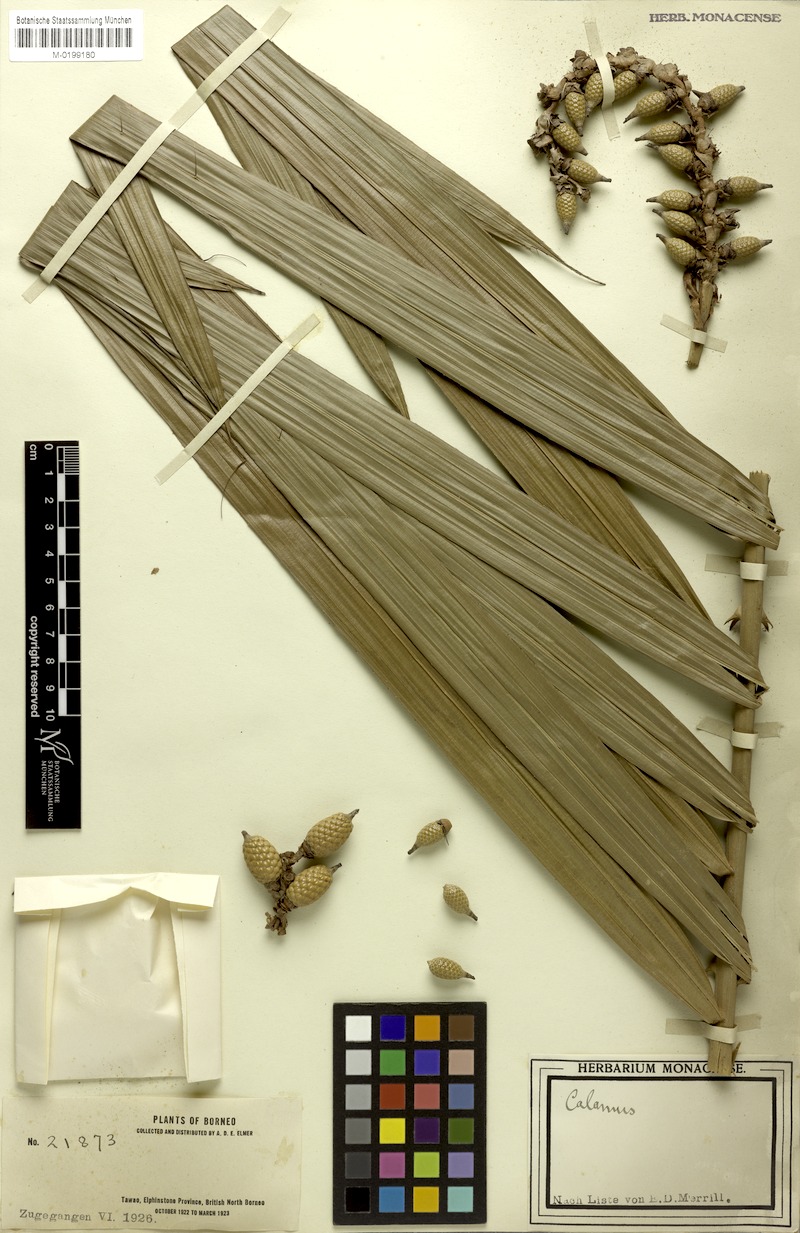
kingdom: Plantae
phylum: Tracheophyta
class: Liliopsida
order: Arecales
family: Arecaceae
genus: Calamus
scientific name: Calamus ruptilis
